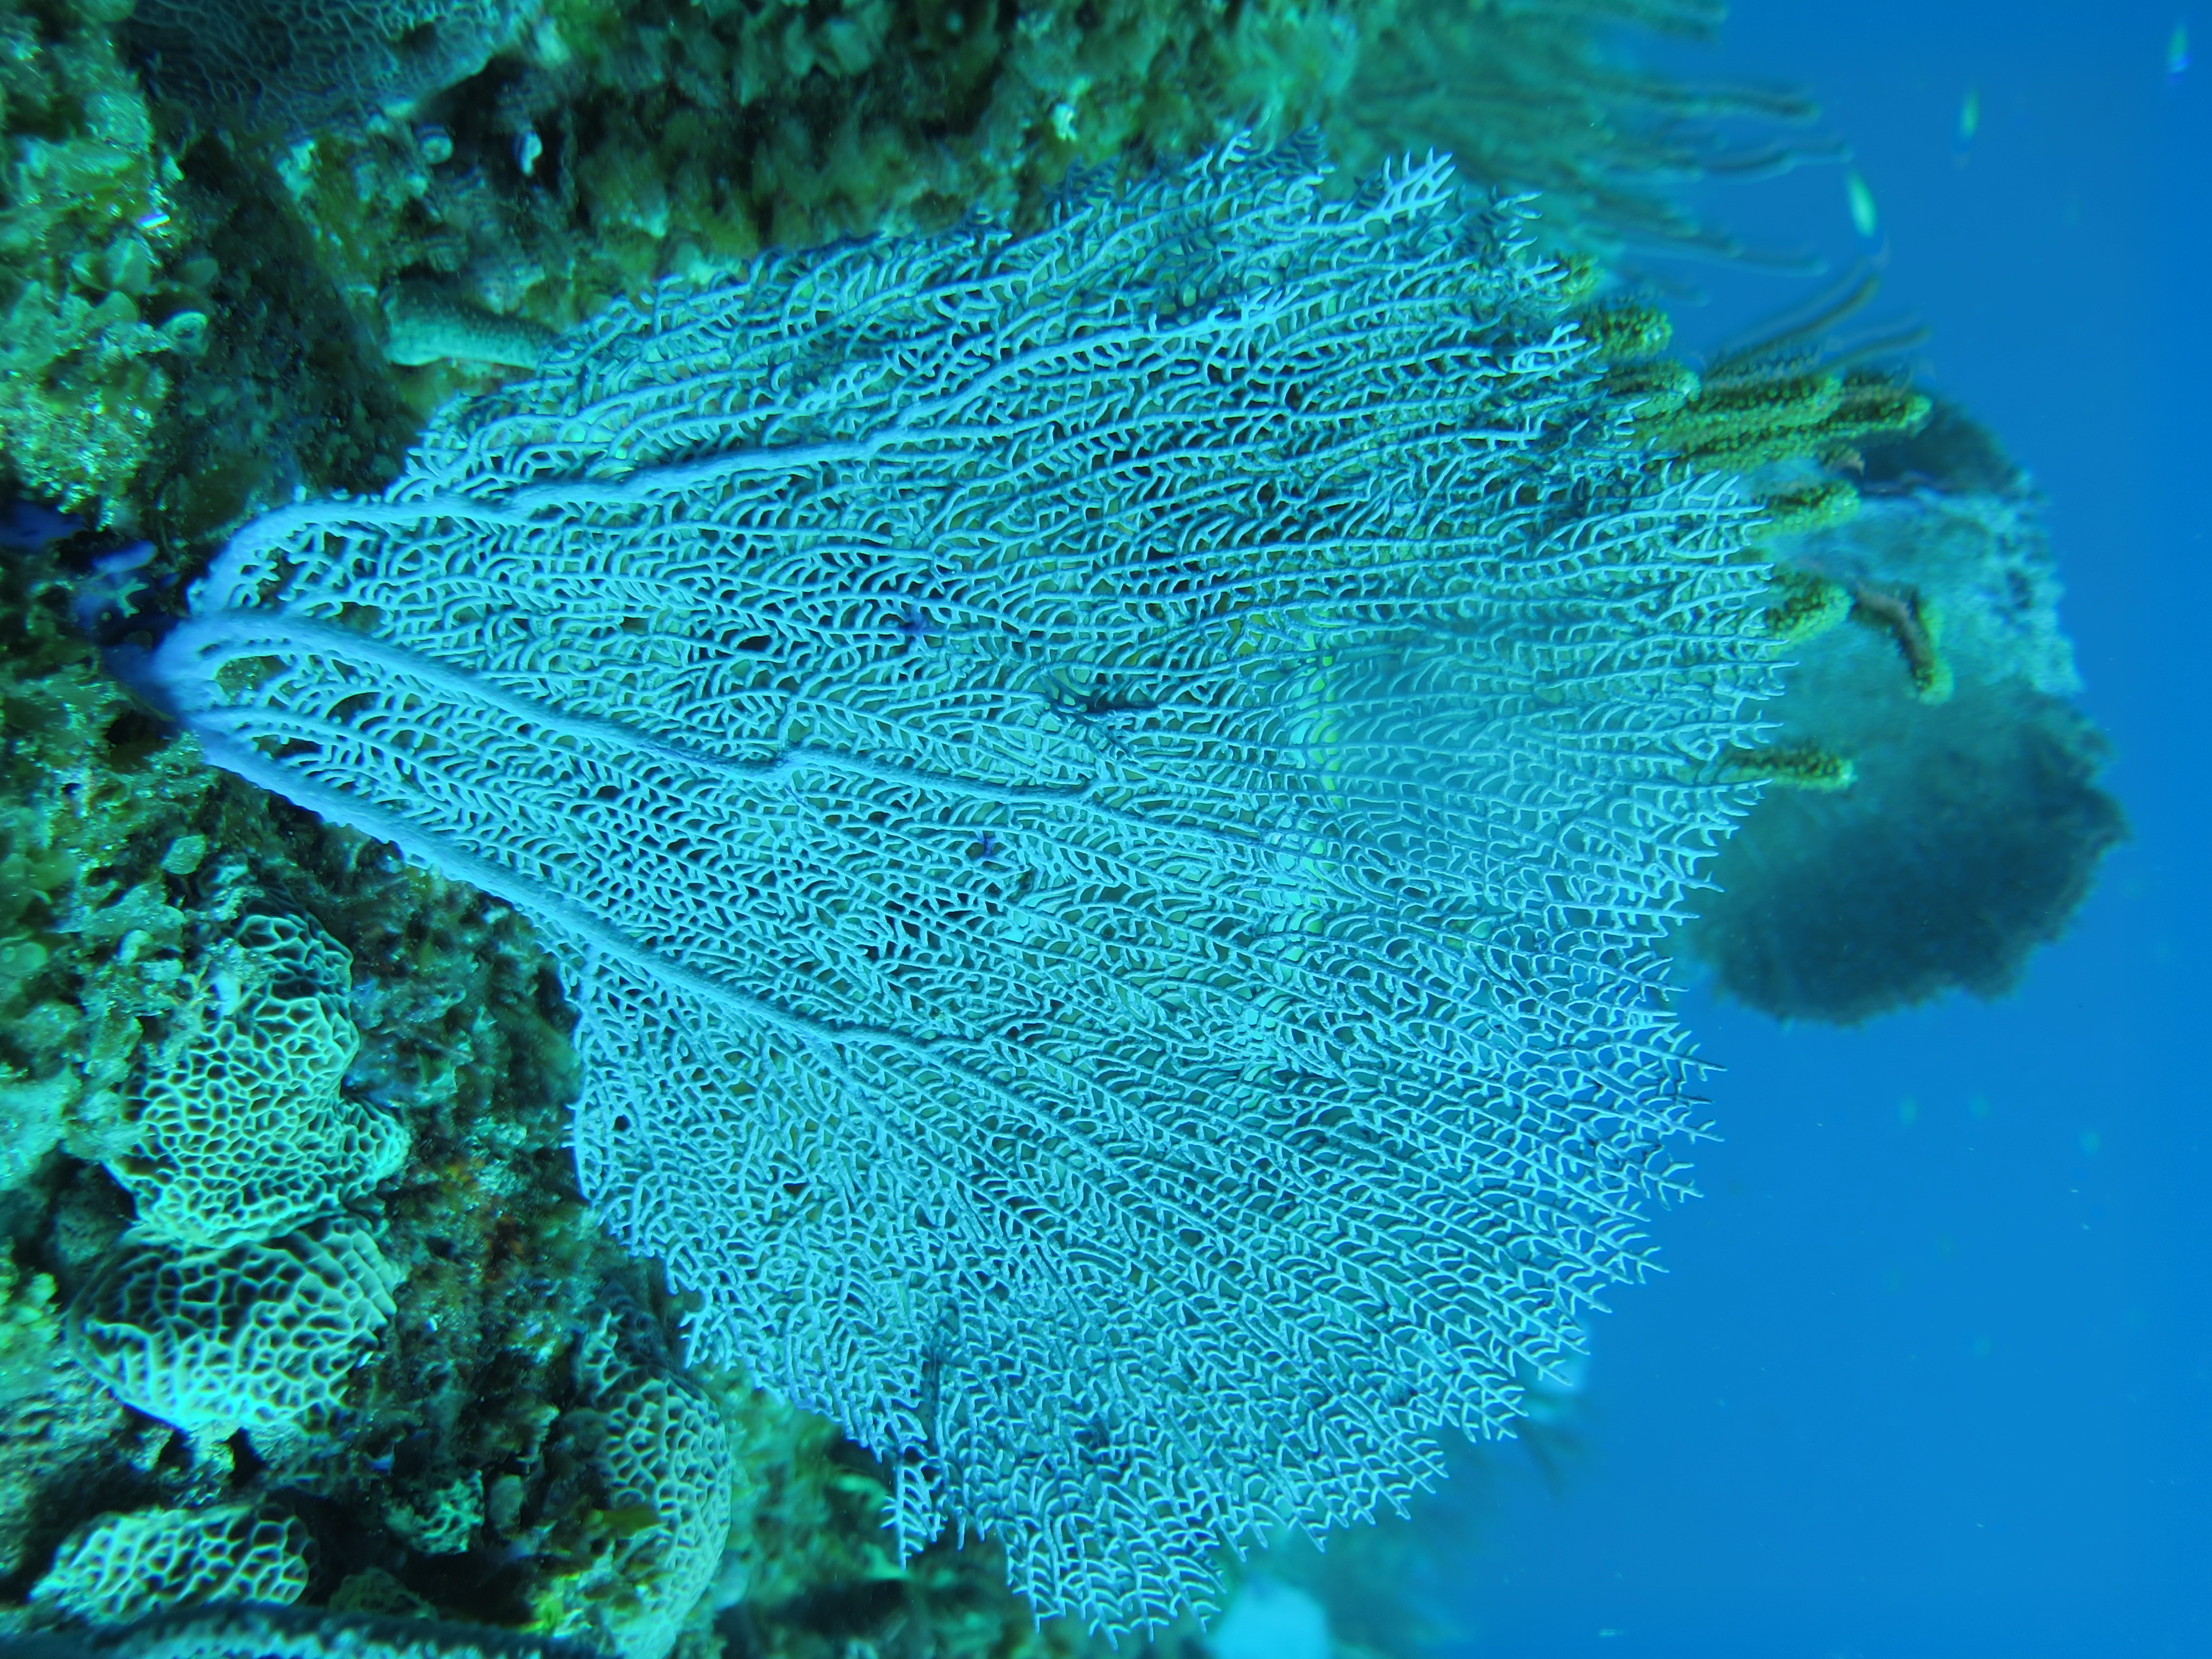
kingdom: Animalia
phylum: Cnidaria
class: Anthozoa
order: Malacalcyonacea
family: Gorgoniidae
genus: Gorgonia
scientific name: Gorgonia ventalina
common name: Common sea fan
